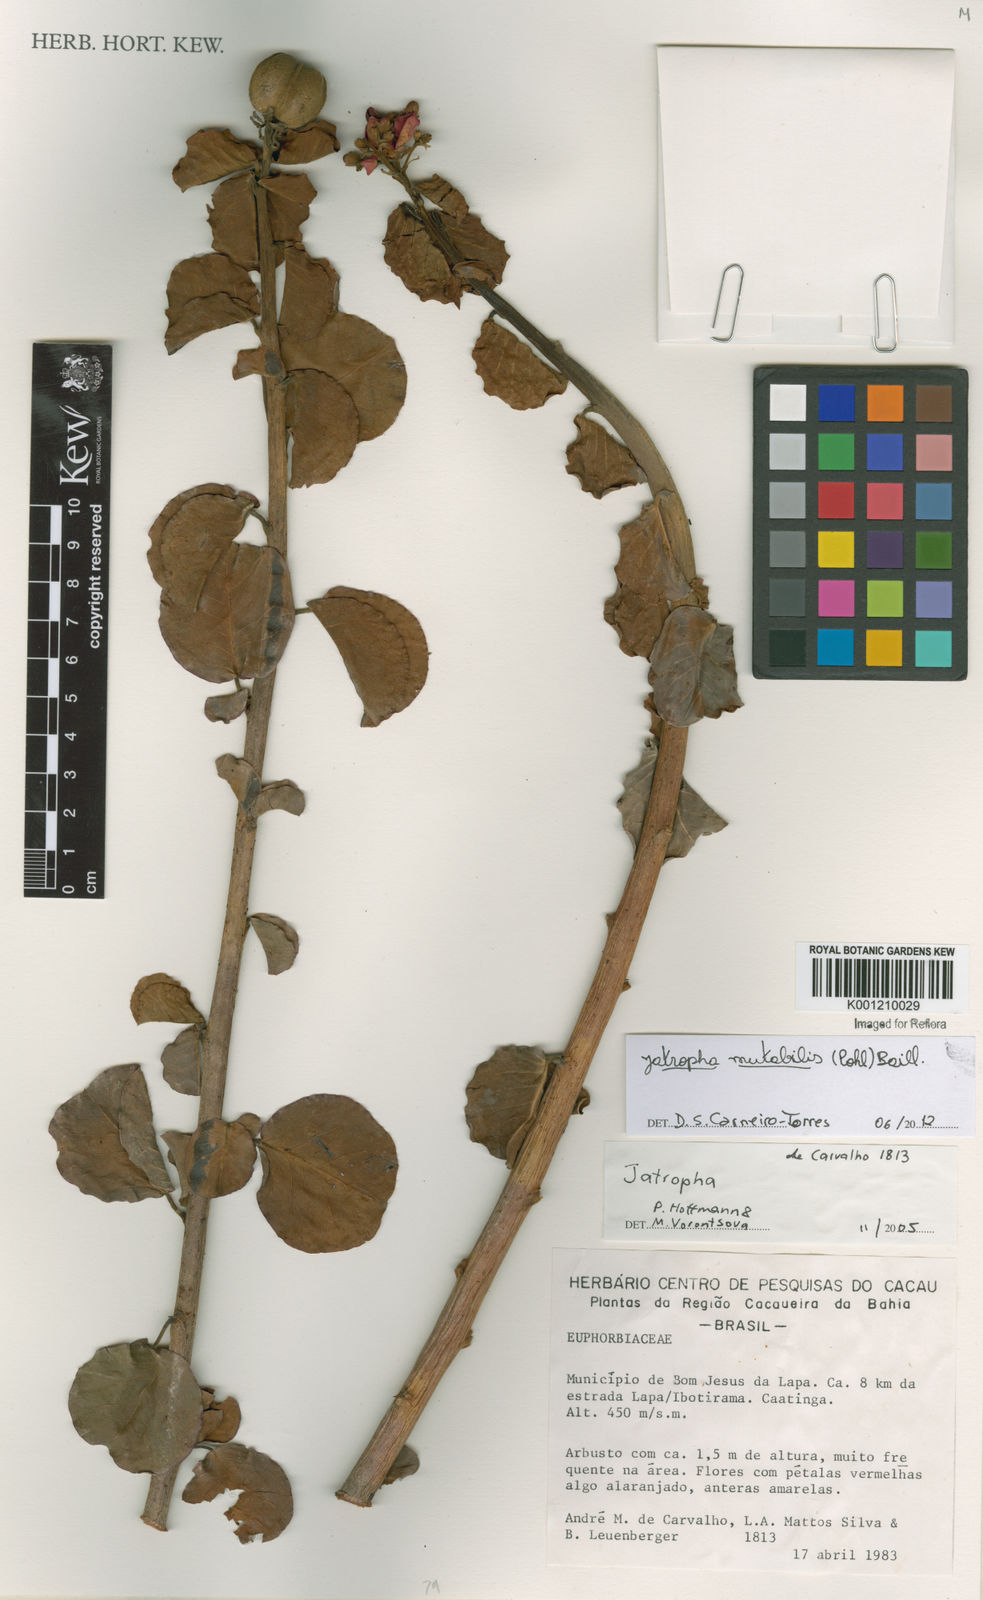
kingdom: Plantae
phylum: Tracheophyta
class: Magnoliopsida
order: Malpighiales
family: Euphorbiaceae
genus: Jatropha
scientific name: Jatropha mutabilis
